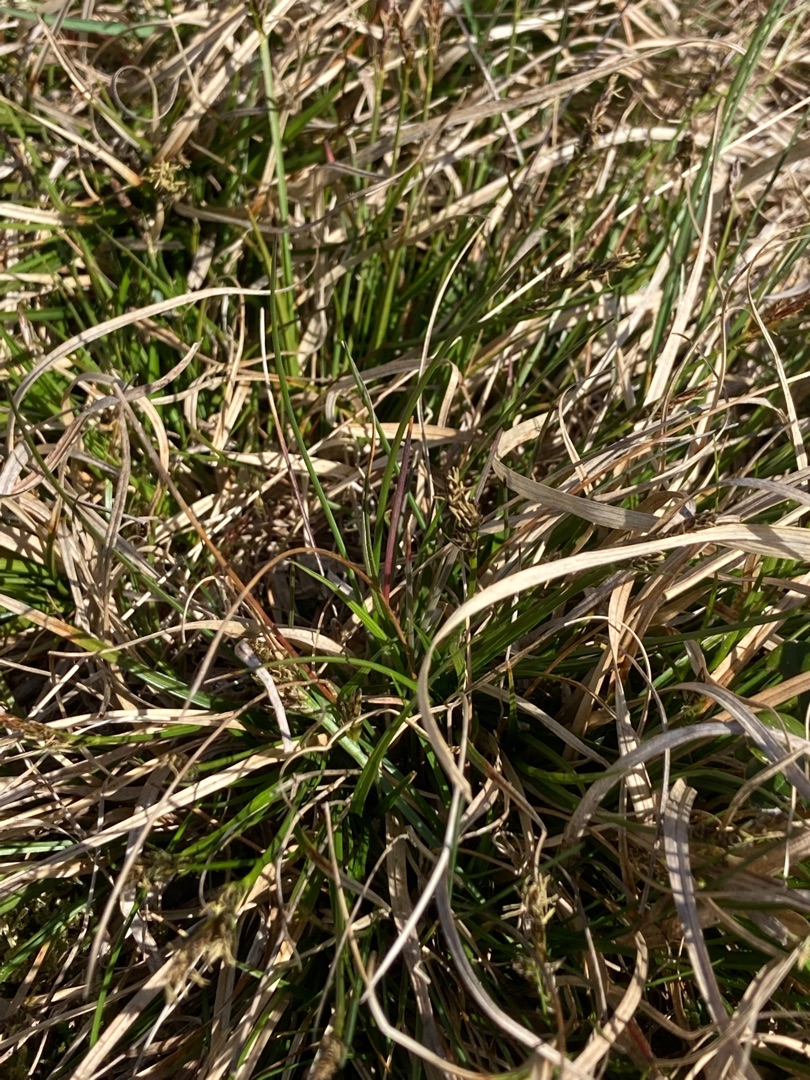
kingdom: Plantae
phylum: Tracheophyta
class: Liliopsida
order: Poales
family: Cyperaceae
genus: Carex
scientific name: Carex pilulifera
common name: Pille-star
